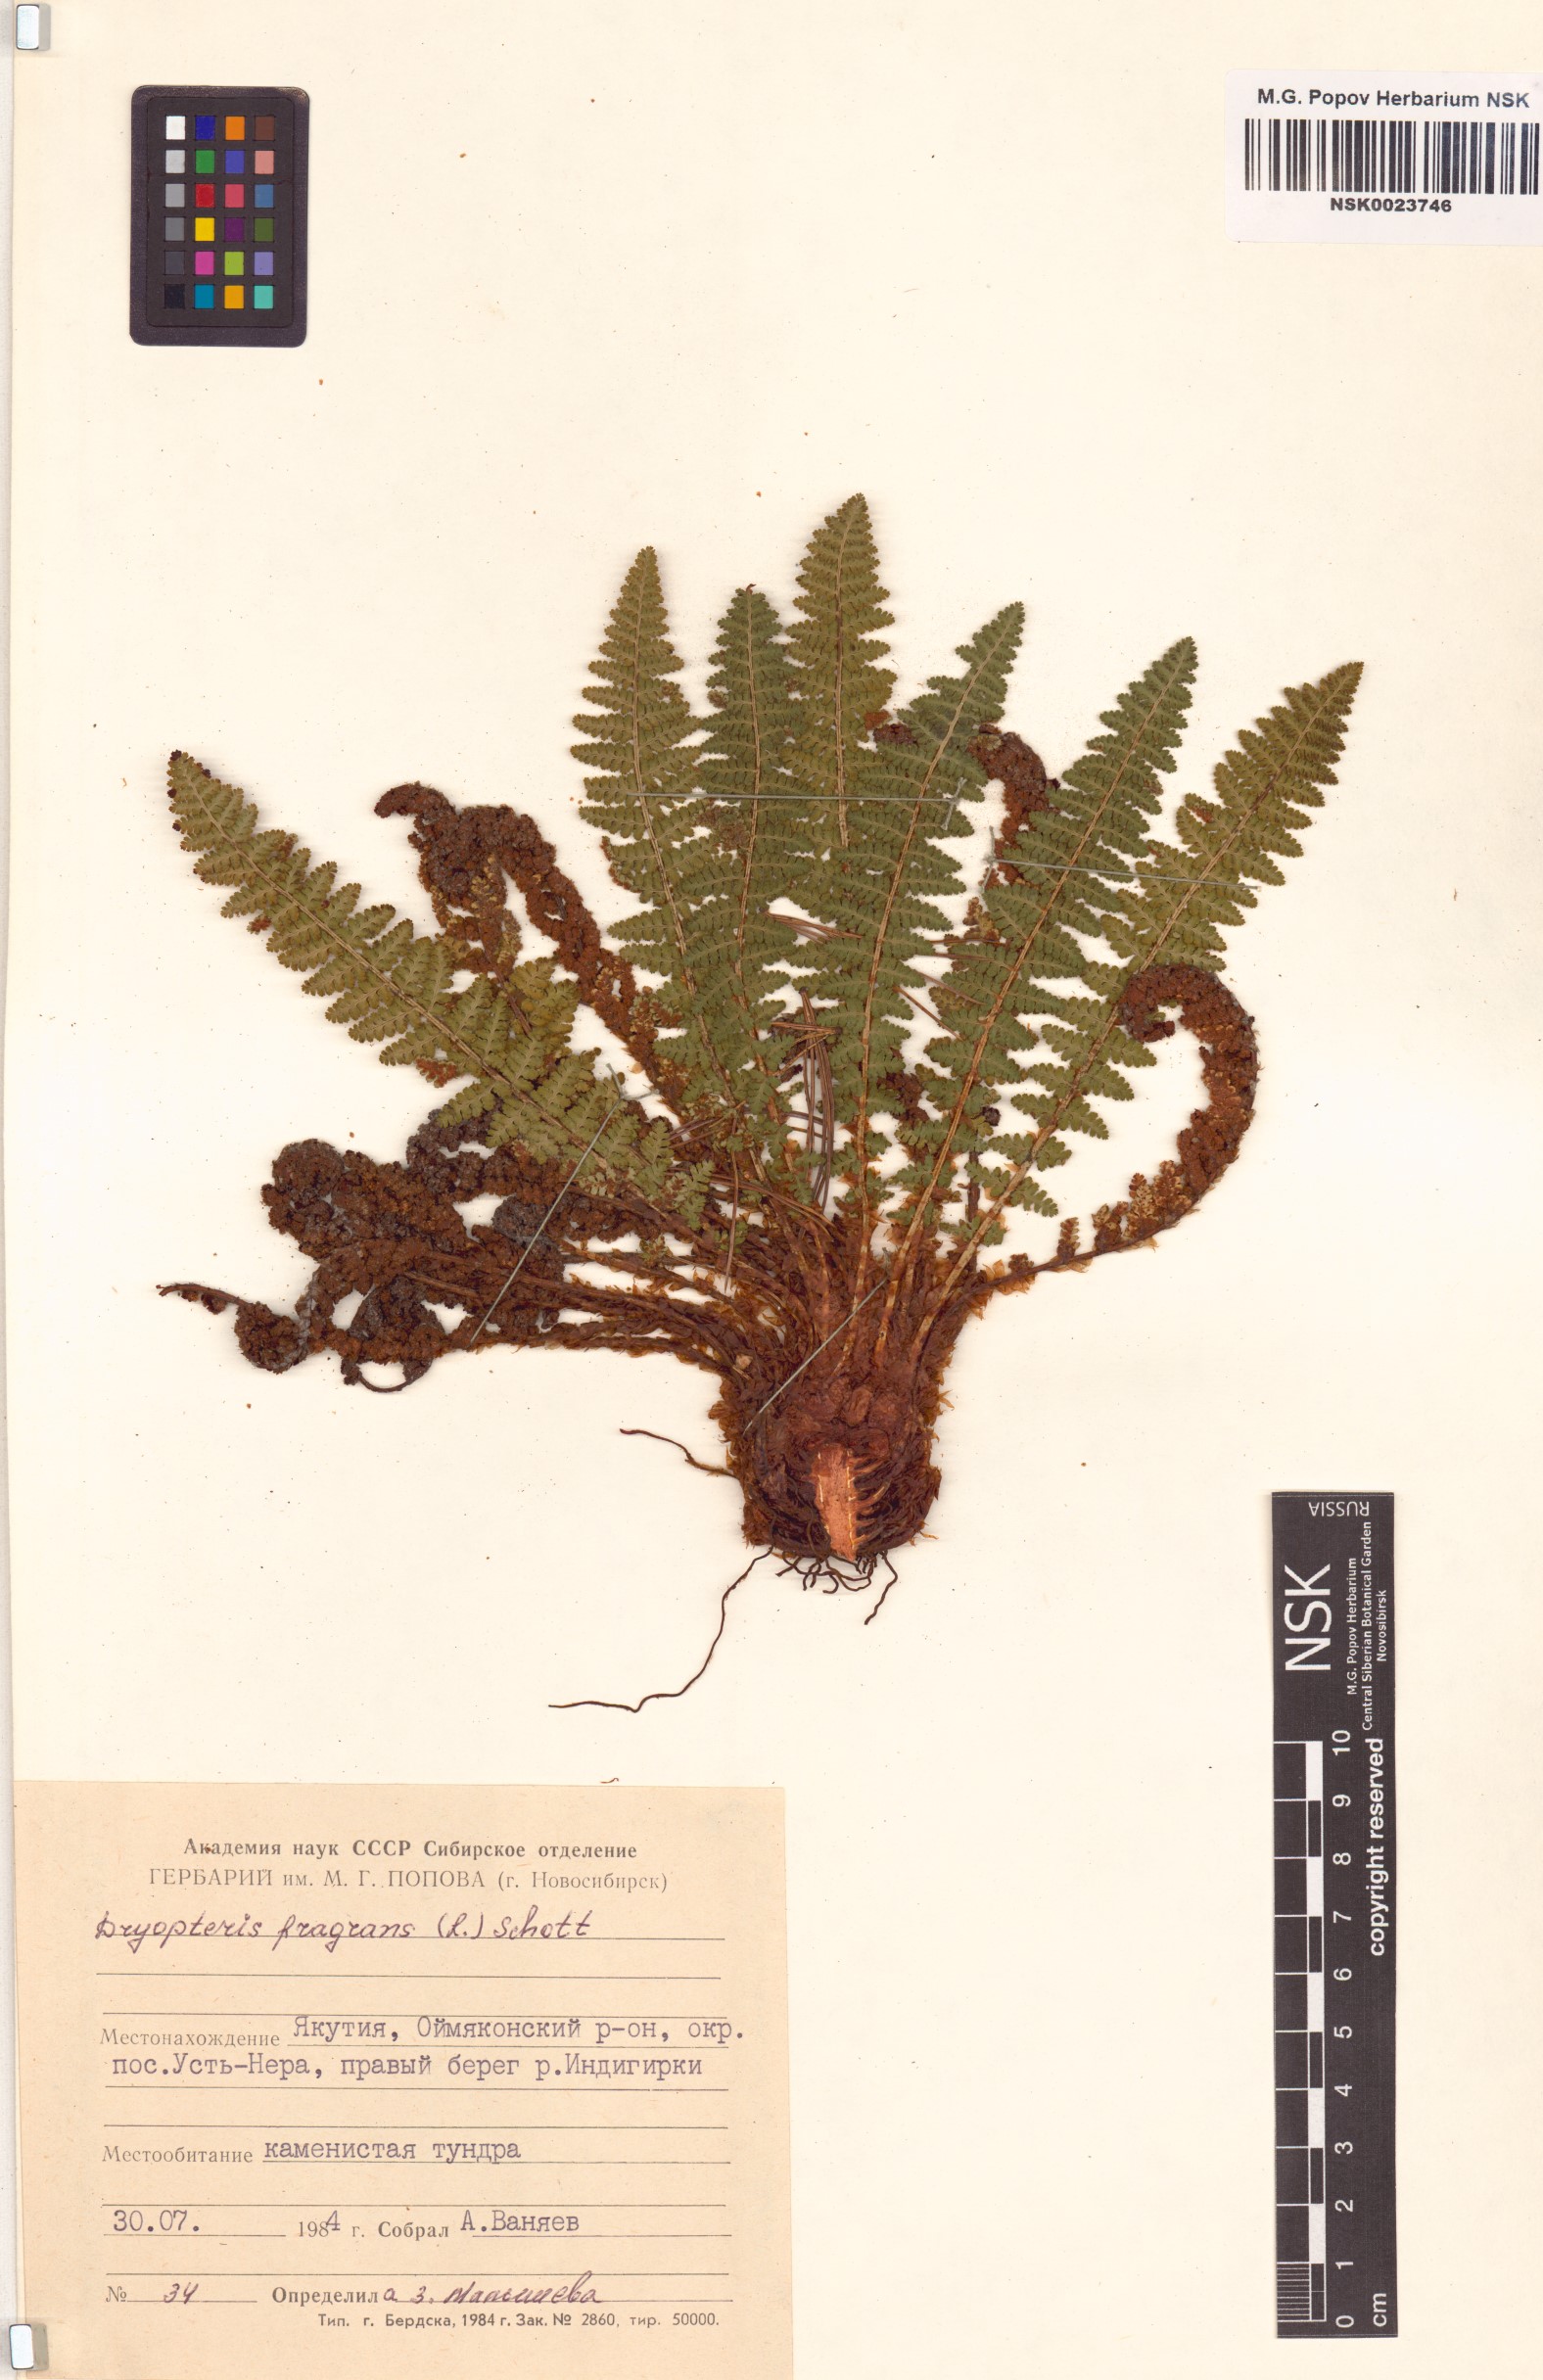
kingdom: Plantae
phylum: Tracheophyta
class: Polypodiopsida
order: Polypodiales
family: Dryopteridaceae
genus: Dryopteris
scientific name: Dryopteris fragrans
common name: Fragrant wood fern
